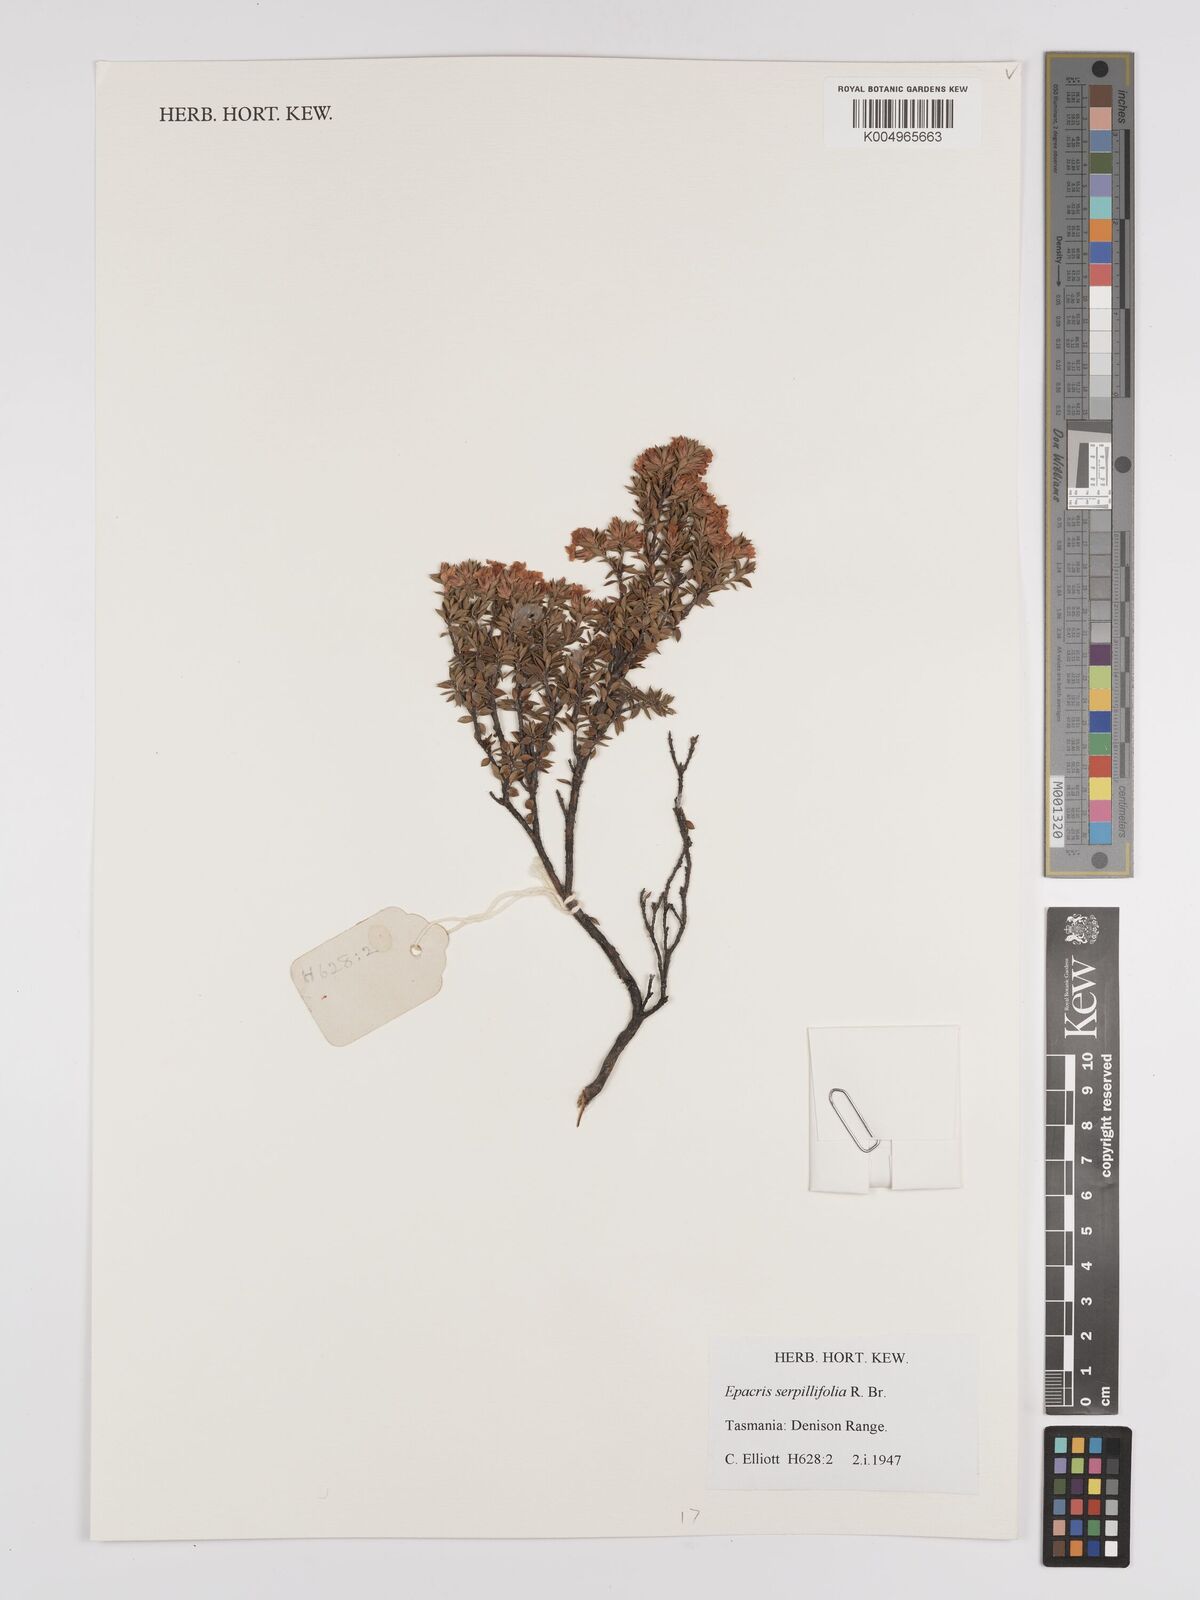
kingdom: Plantae
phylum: Tracheophyta
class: Magnoliopsida
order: Ericales
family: Ericaceae
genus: Epacris
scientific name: Epacris serpyllifolia
